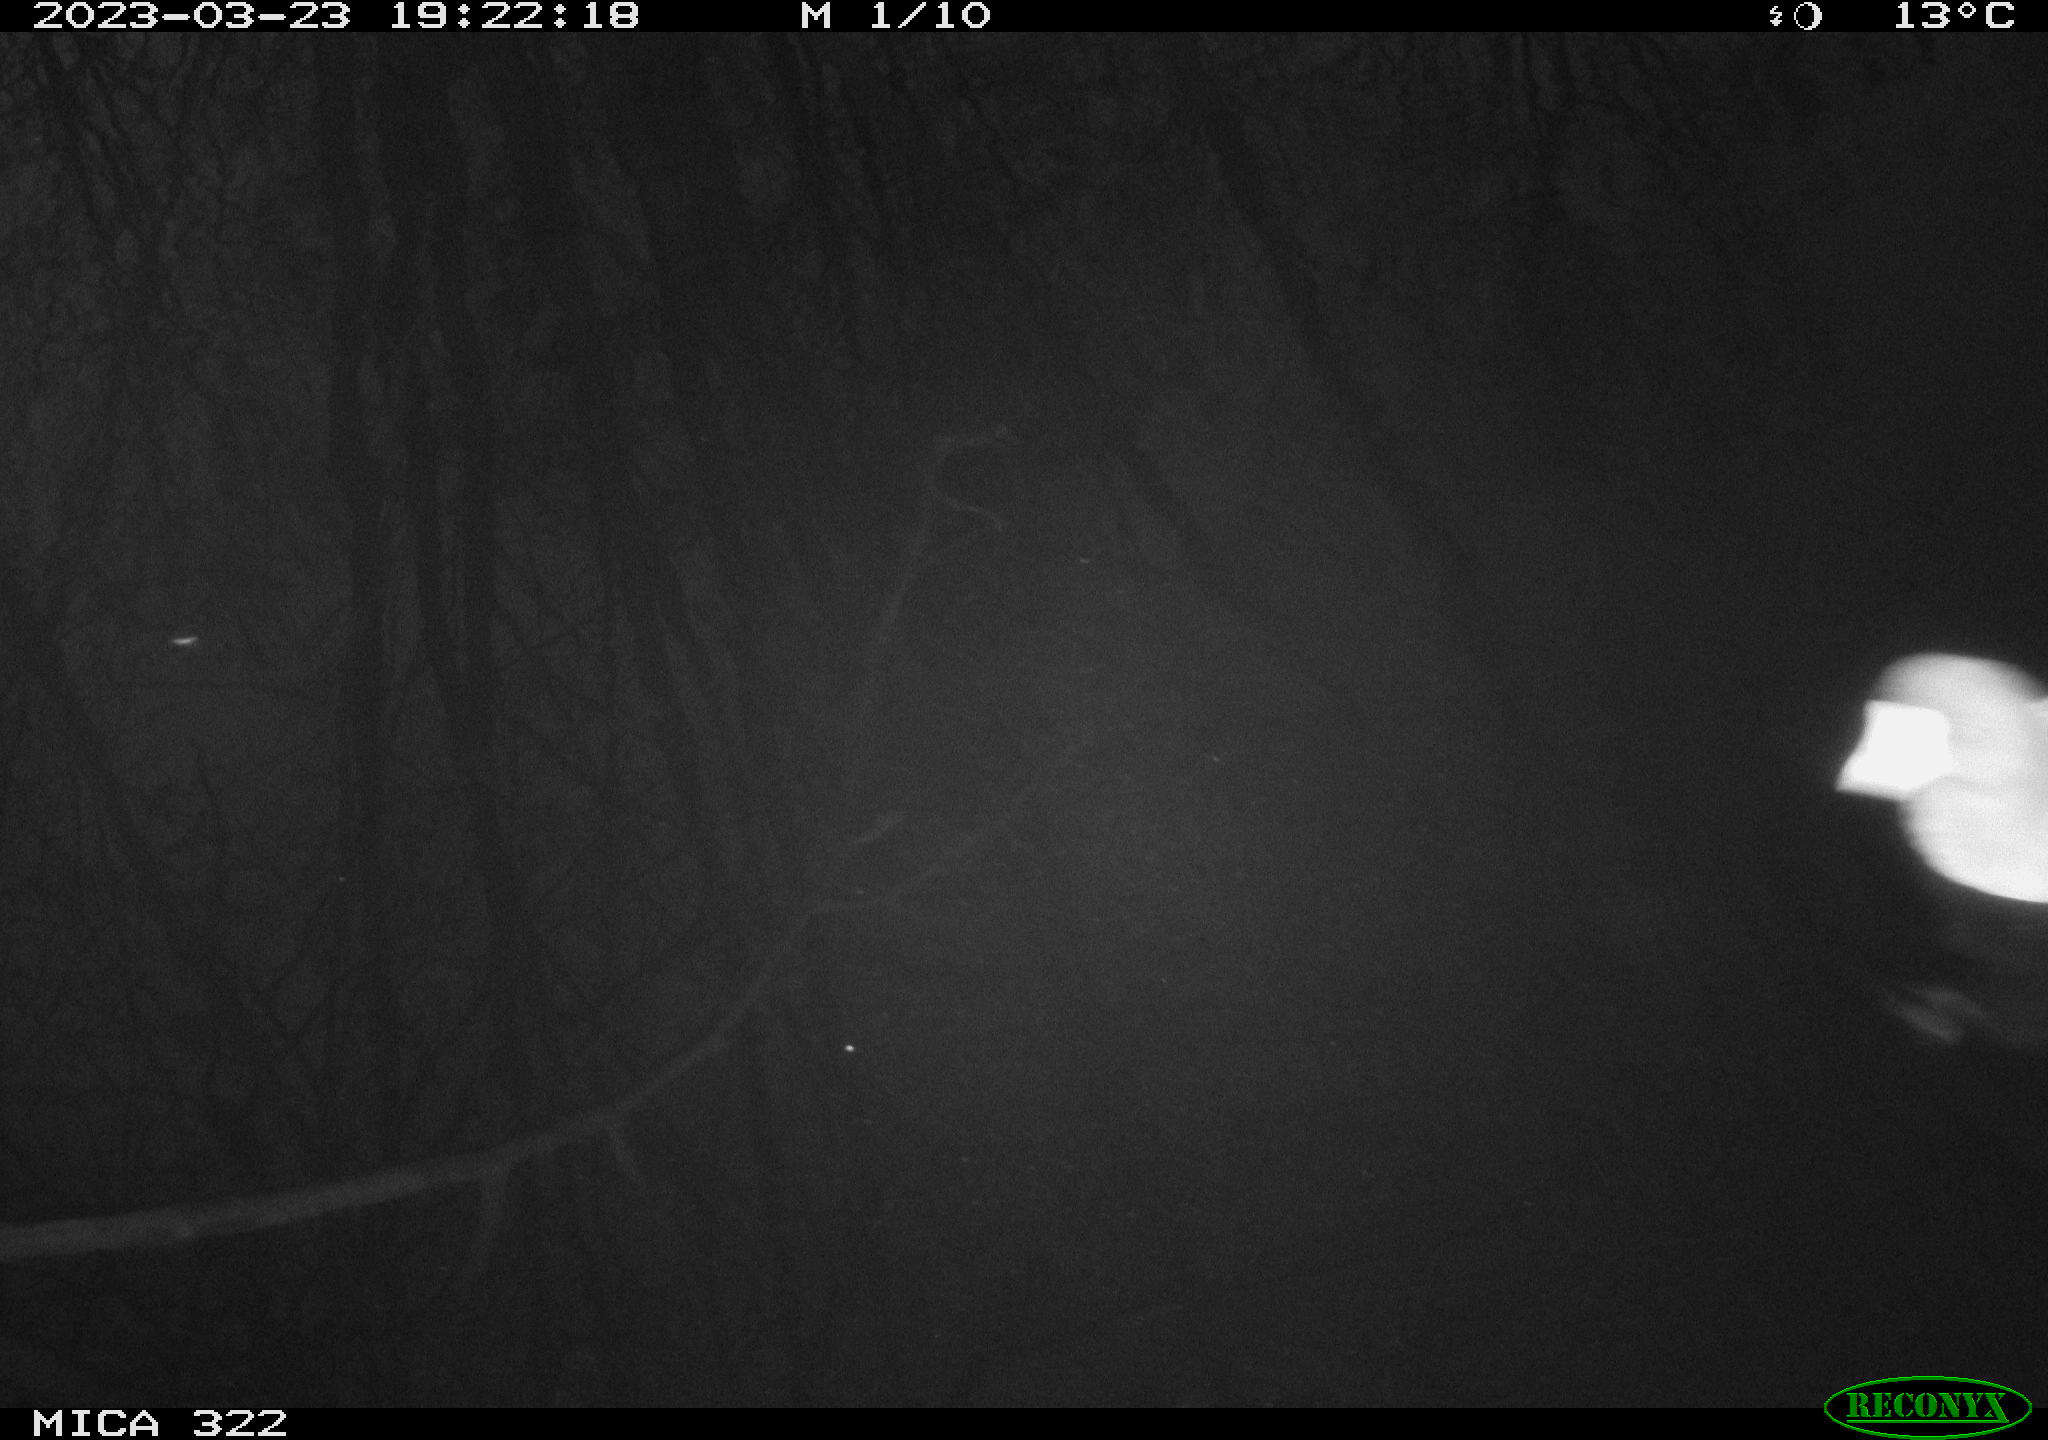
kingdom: Animalia
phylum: Chordata
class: Aves
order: Gruiformes
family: Rallidae
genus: Gallinula
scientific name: Gallinula chloropus
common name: Common moorhen
